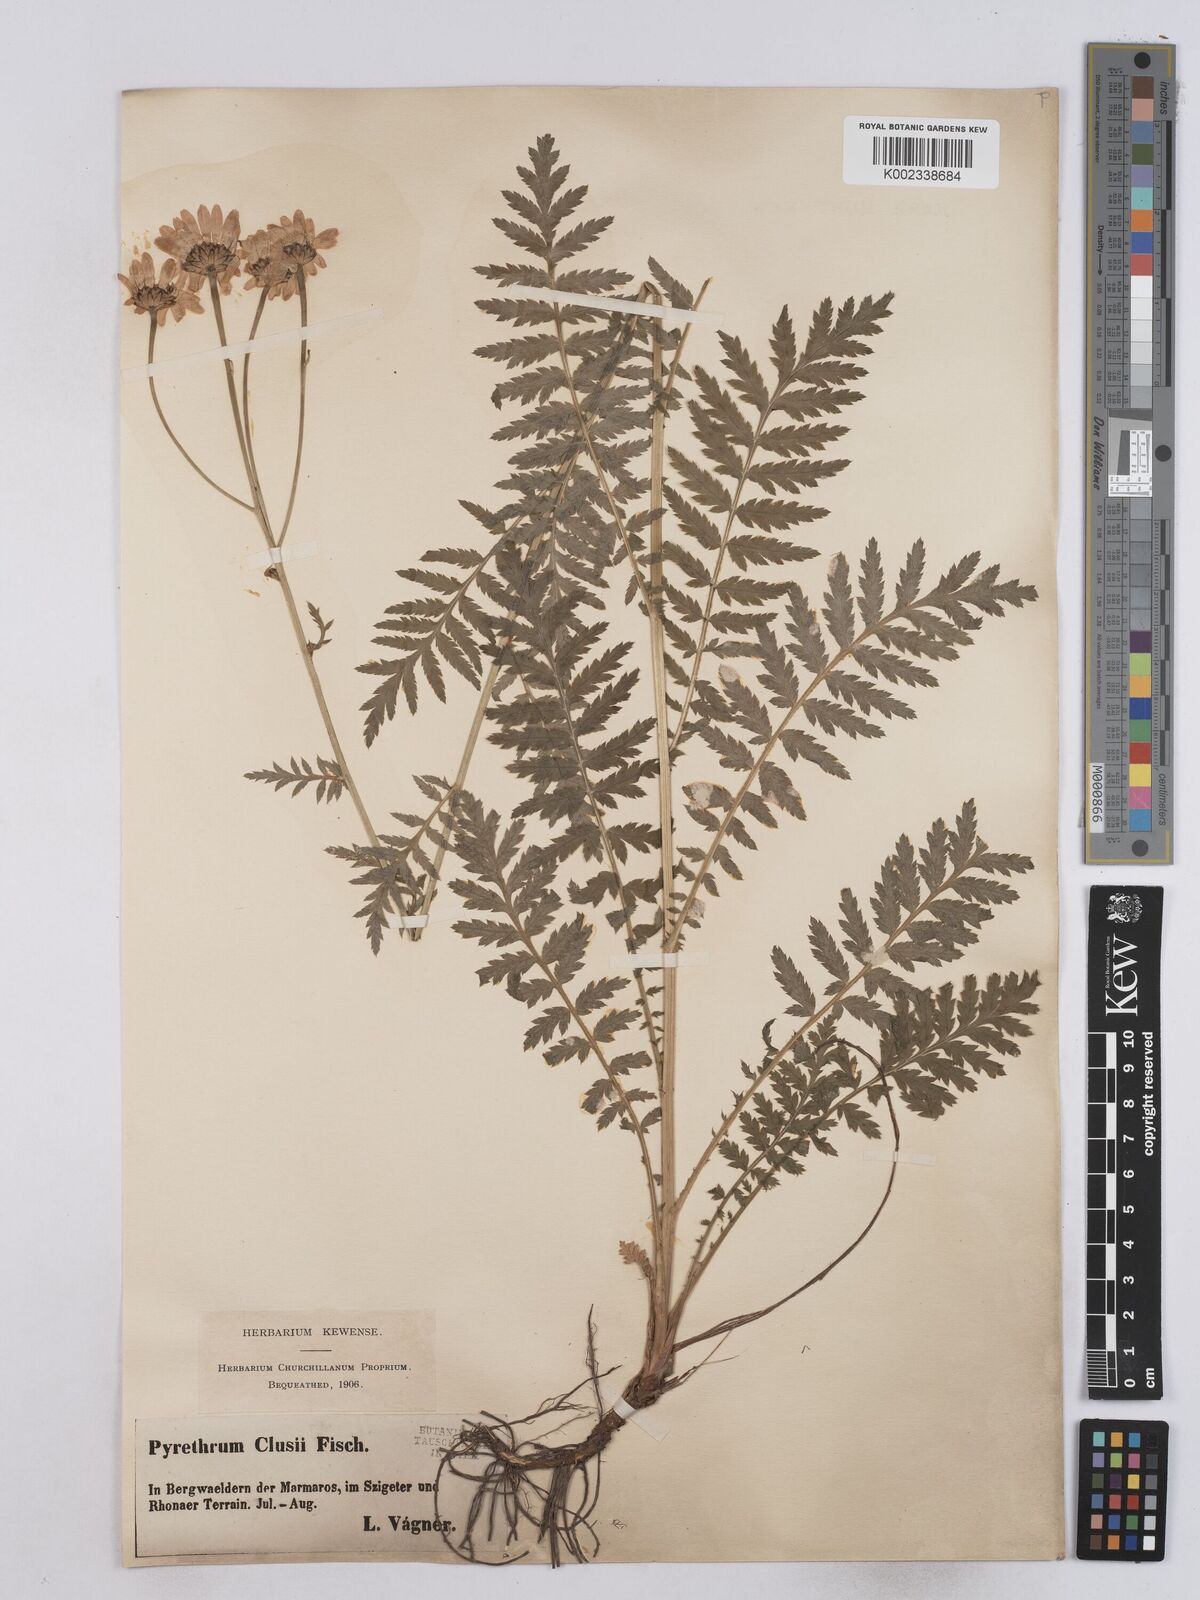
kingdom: Plantae
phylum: Tracheophyta
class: Magnoliopsida
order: Asterales
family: Asteraceae
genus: Tanacetum
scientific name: Tanacetum corymbosum
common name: Scentless feverfew
